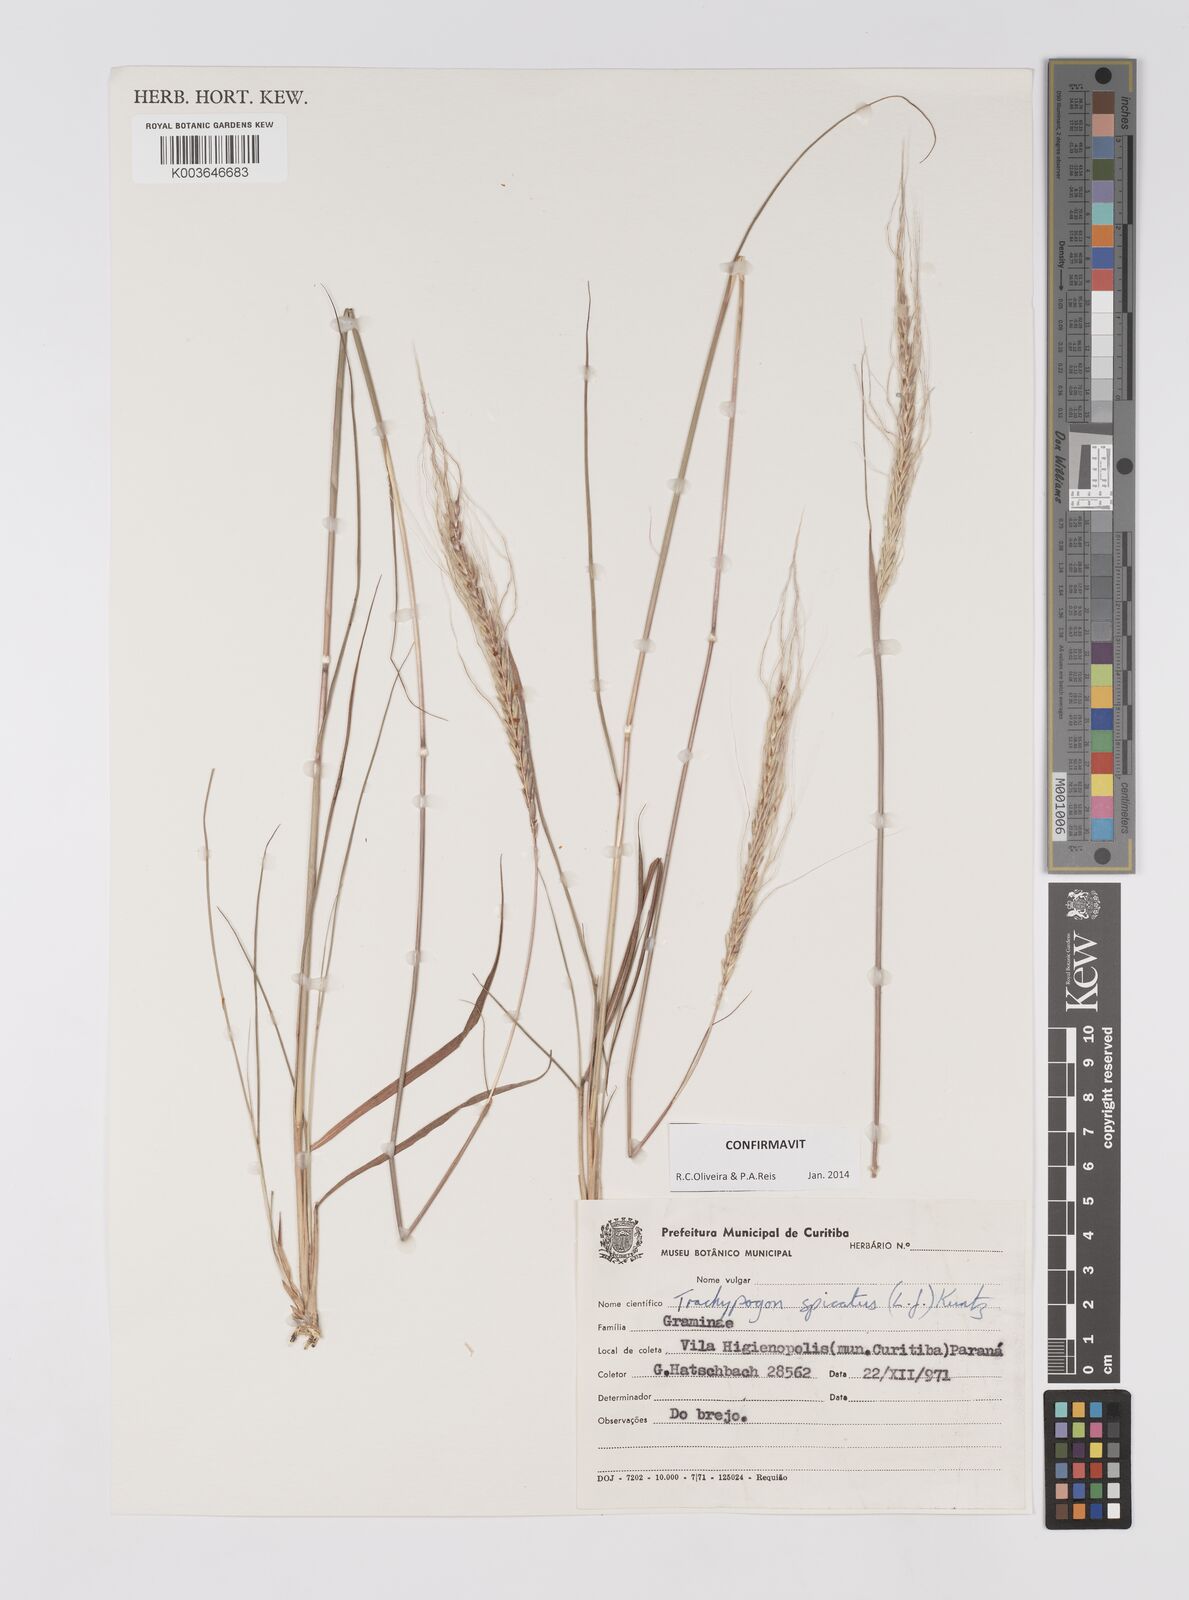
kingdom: Plantae
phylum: Tracheophyta
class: Liliopsida
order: Poales
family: Poaceae
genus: Trachypogon
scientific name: Trachypogon spicatus
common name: Crinkle-awn
